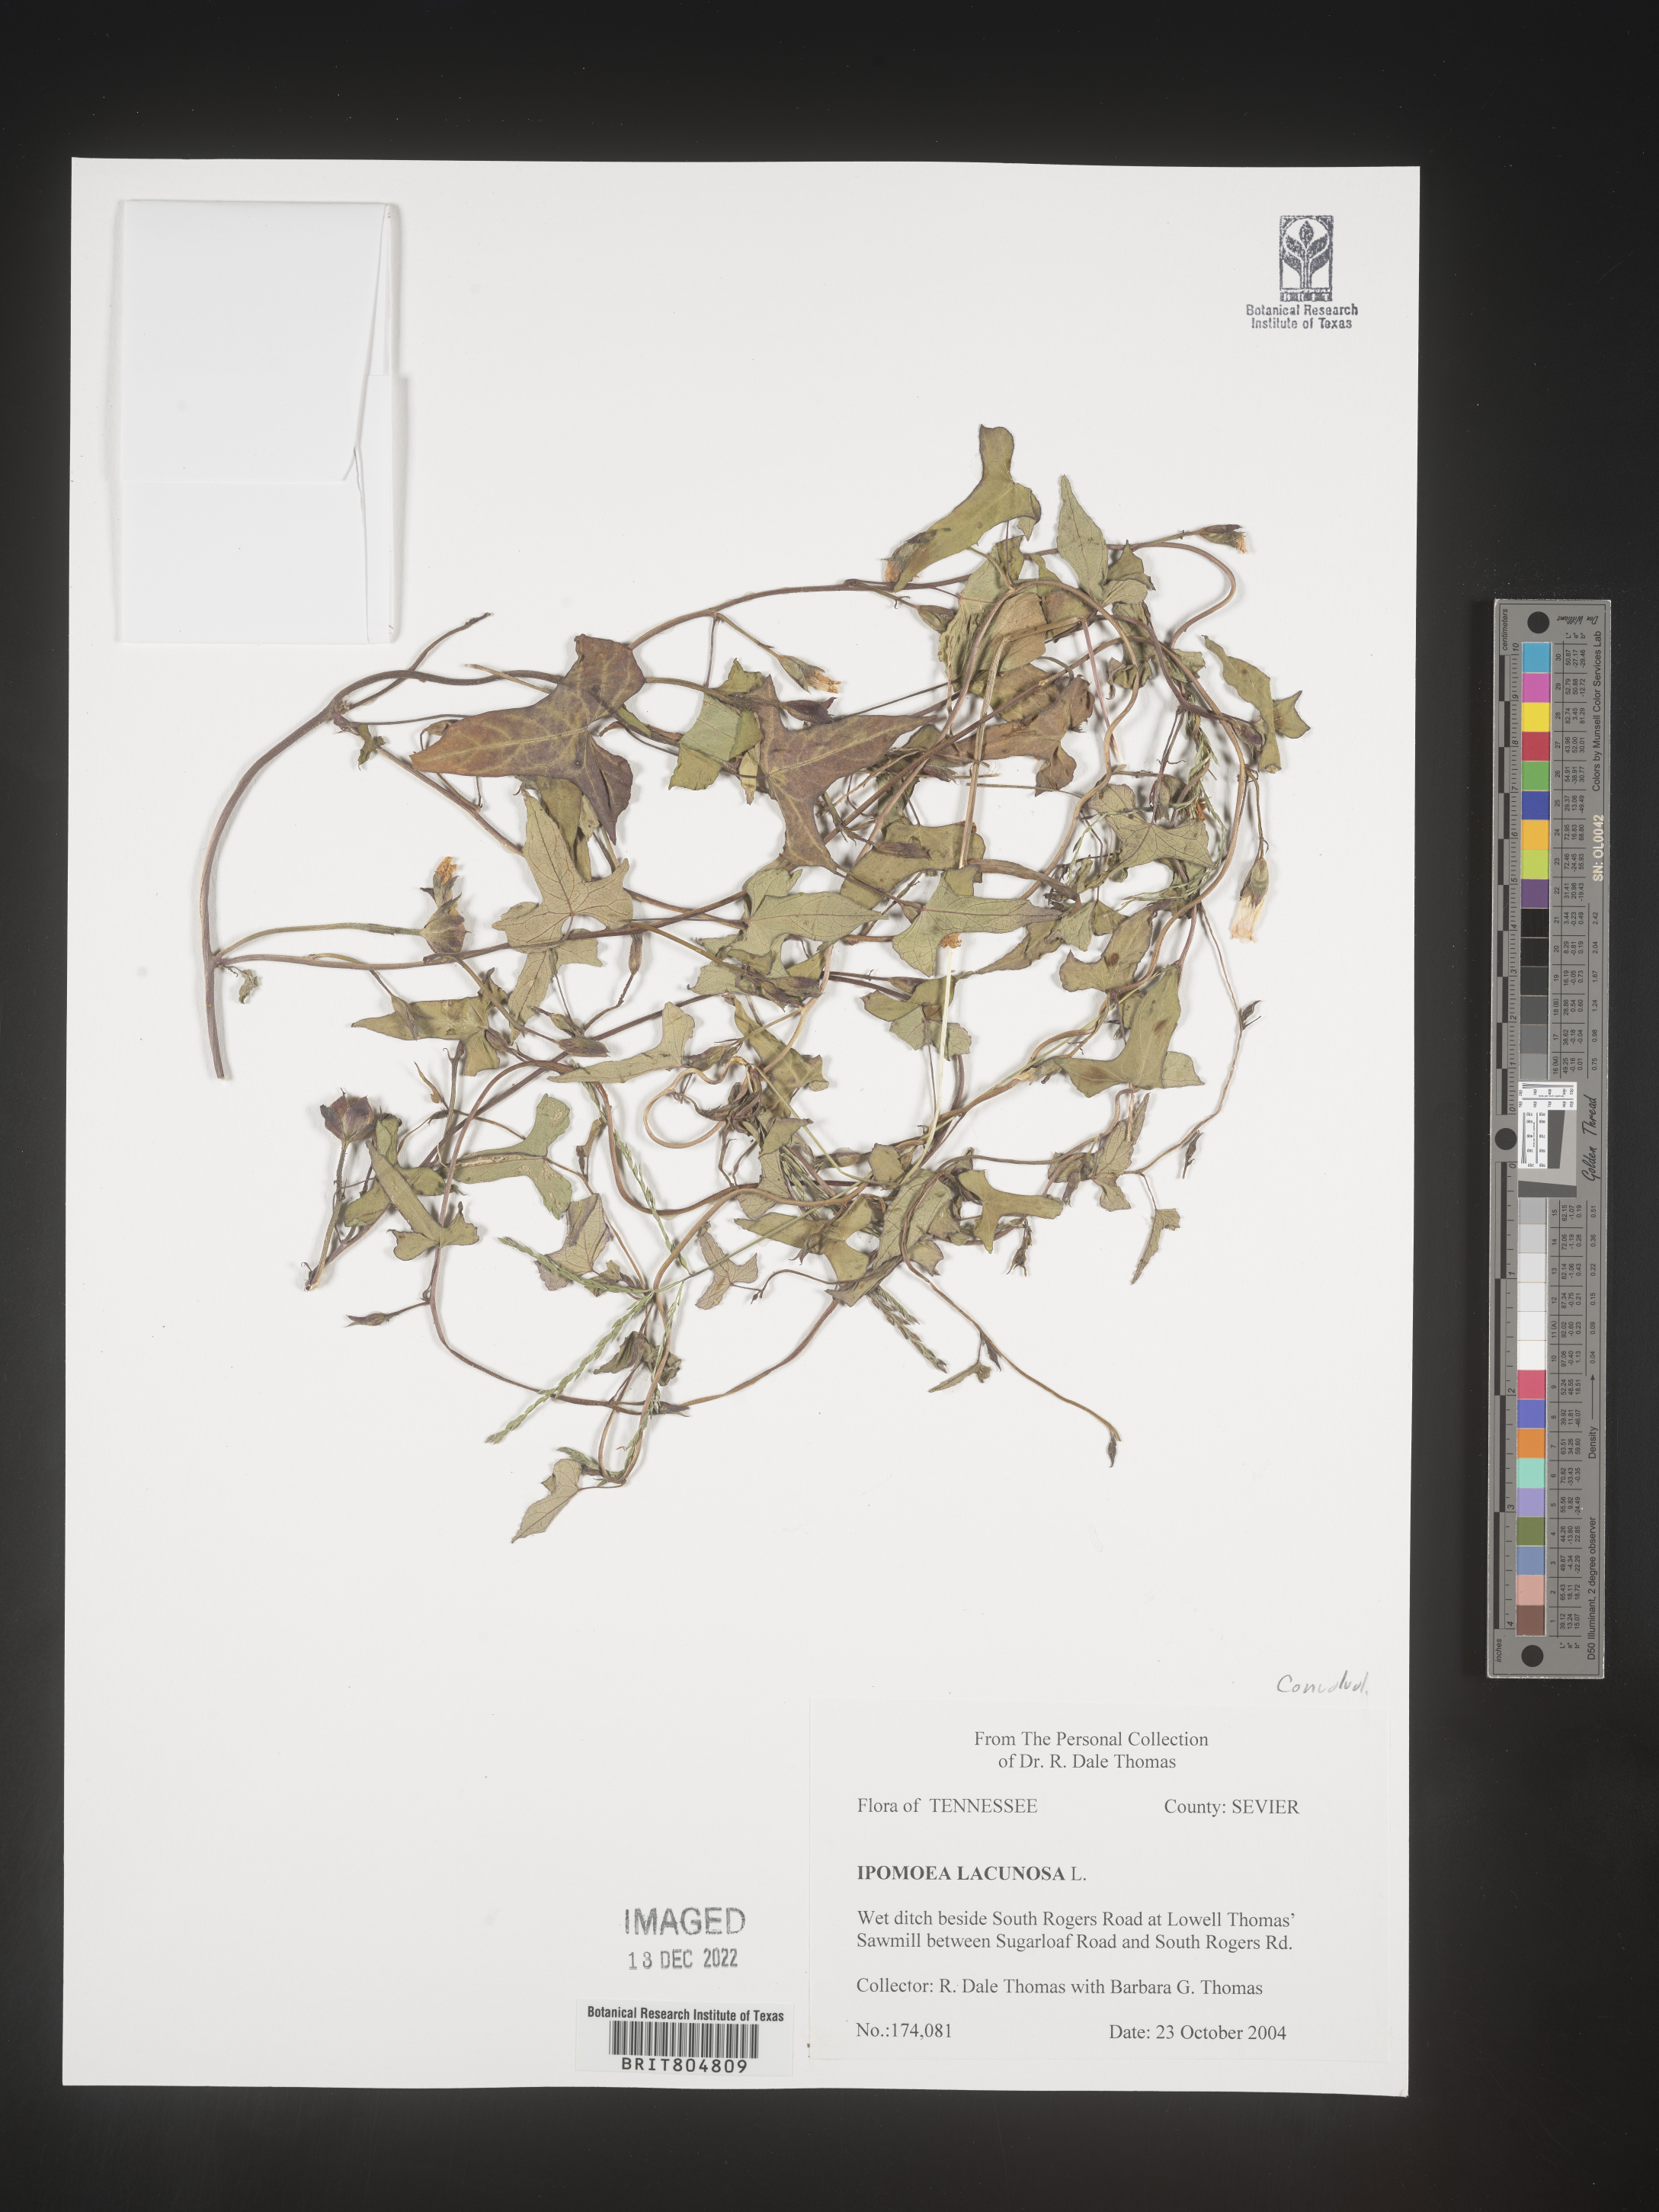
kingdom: Plantae
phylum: Tracheophyta
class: Magnoliopsida
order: Solanales
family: Convolvulaceae
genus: Ipomoea
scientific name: Ipomoea lacunosa
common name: White morning-glory
